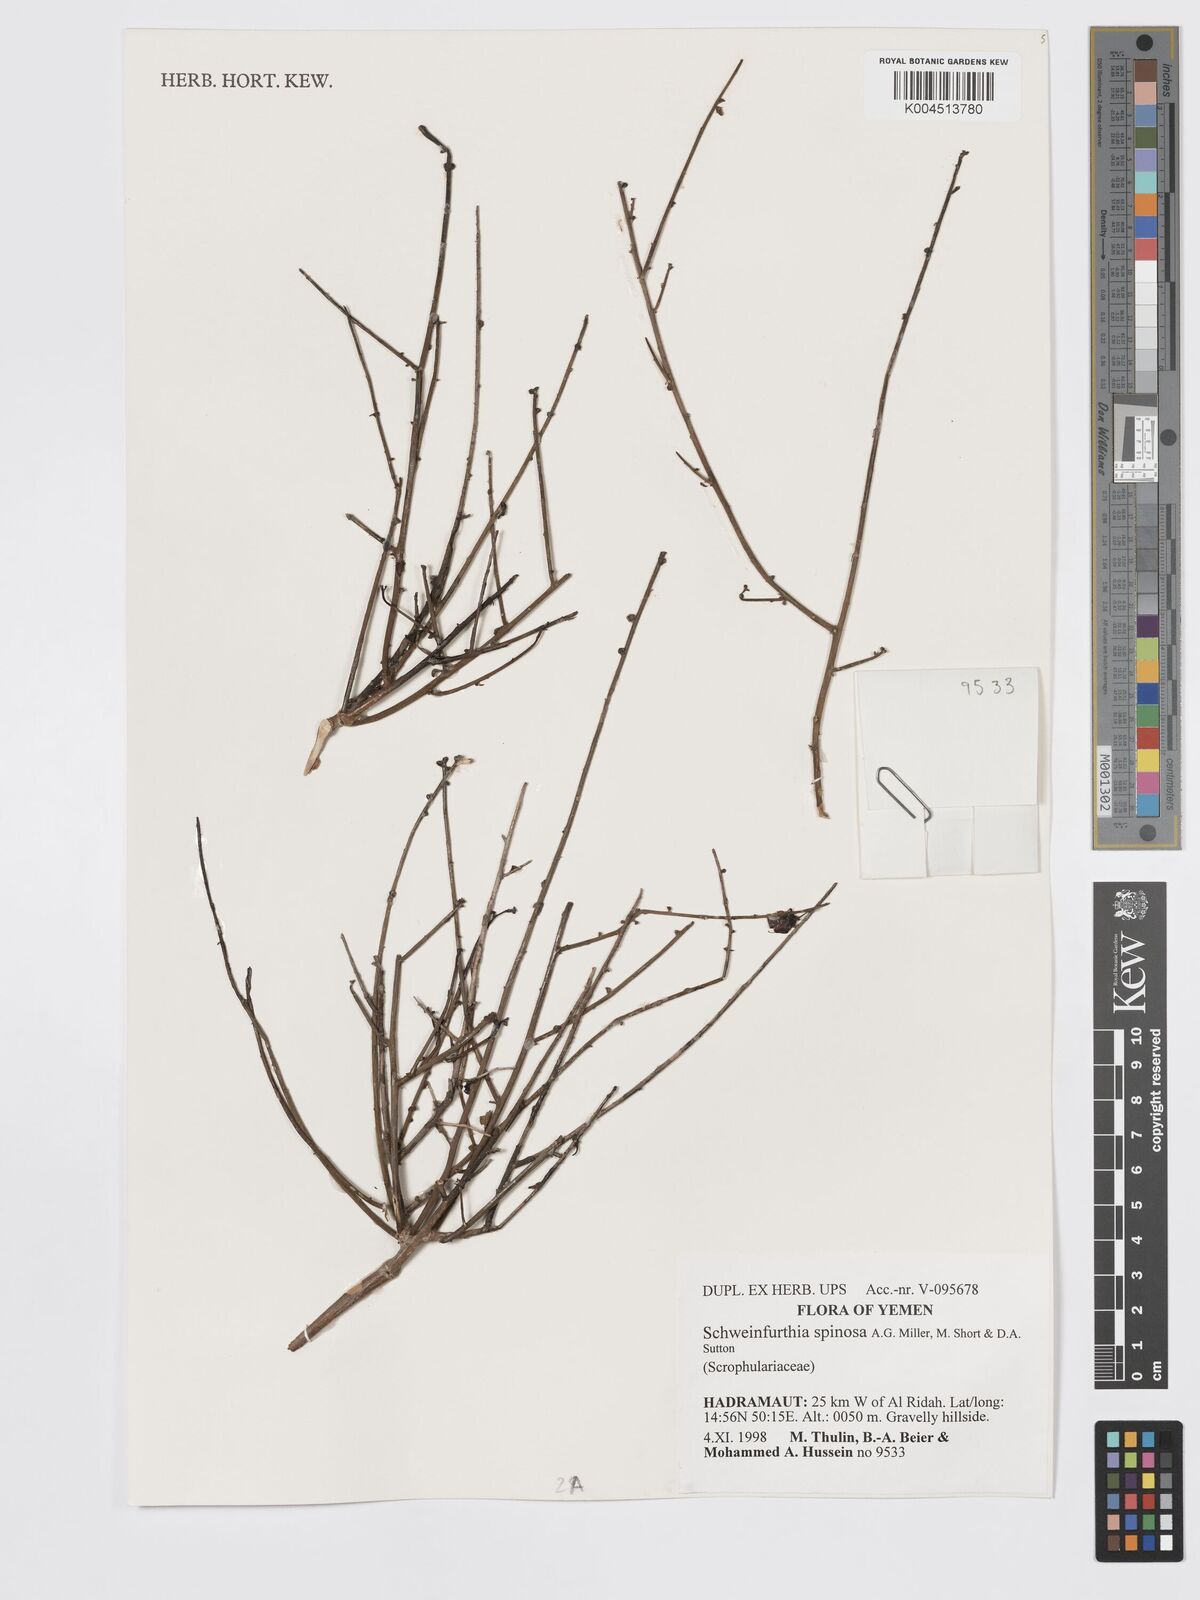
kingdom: Plantae
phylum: Tracheophyta
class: Magnoliopsida
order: Lamiales
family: Plantaginaceae
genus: Schweinfurthia
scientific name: Schweinfurthia spinosa
